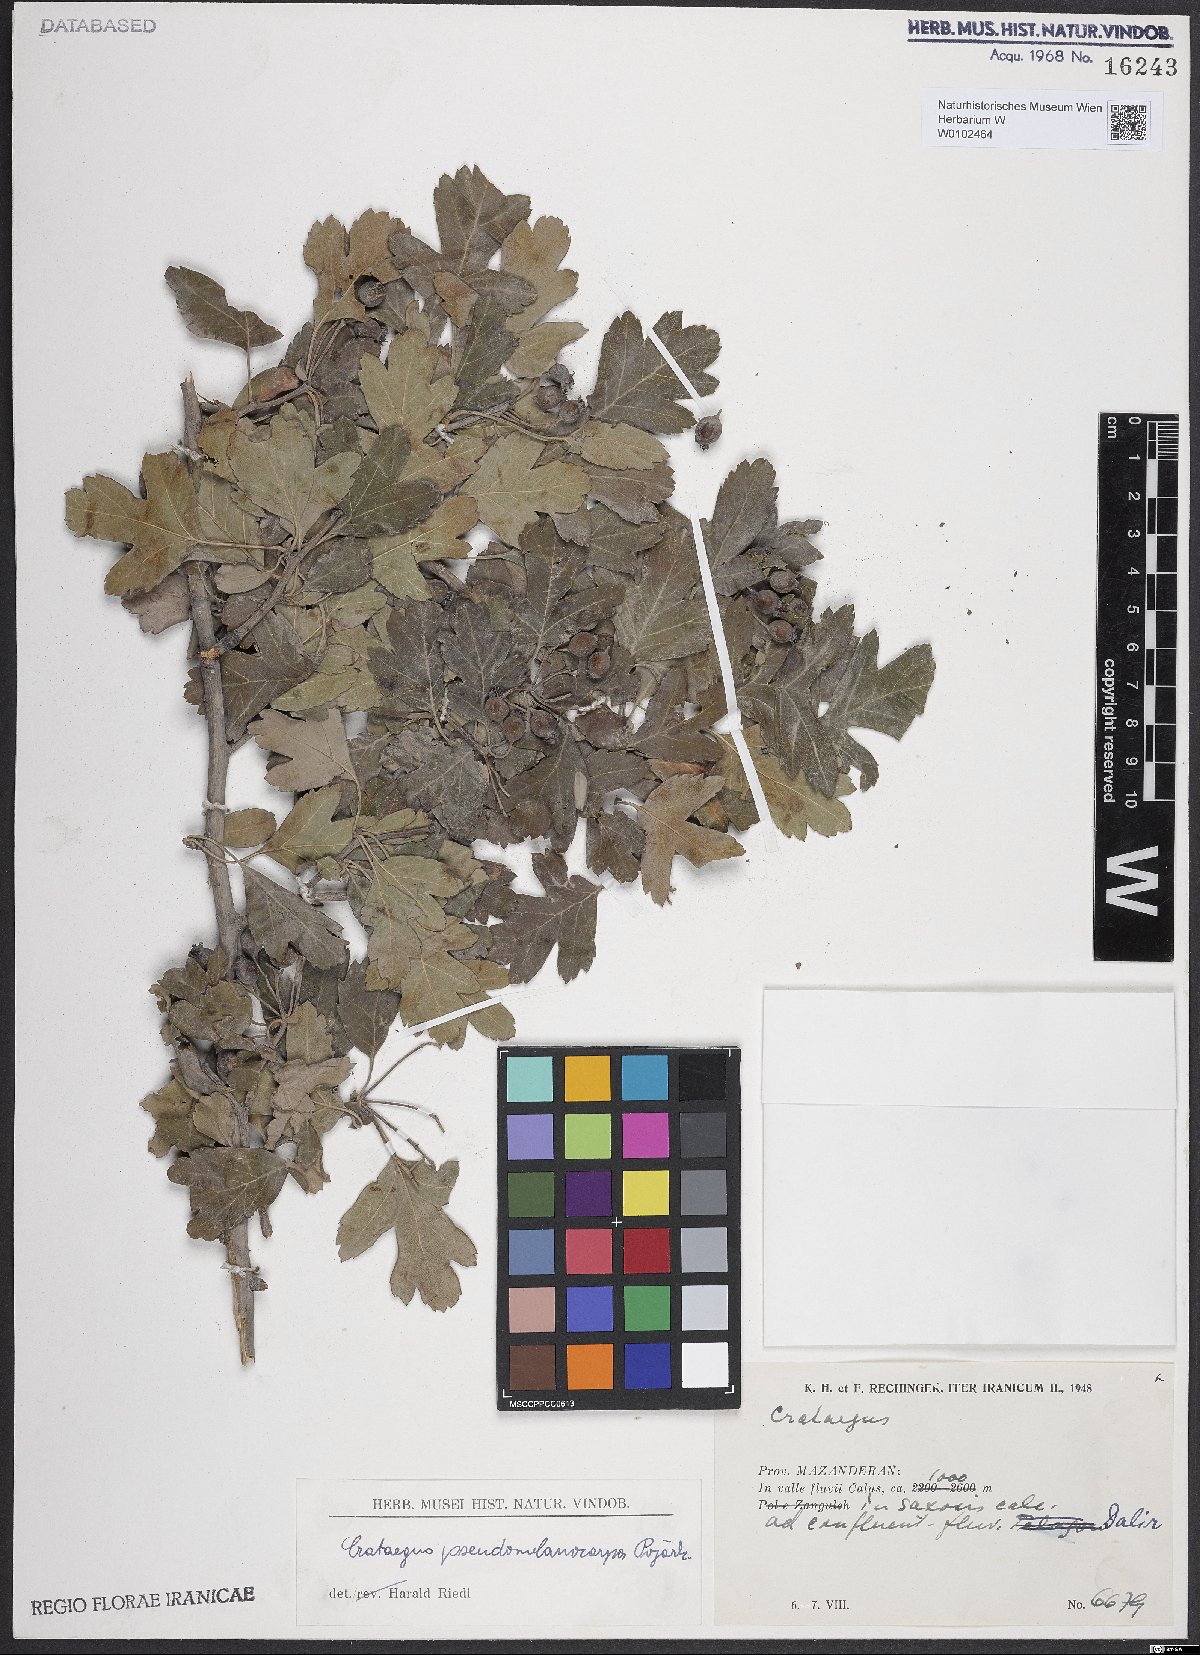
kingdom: Plantae
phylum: Tracheophyta
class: Magnoliopsida
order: Rosales
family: Rosaceae
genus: Crataegus
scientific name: Crataegus pentagyna
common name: Small-flowered black hawthorn
